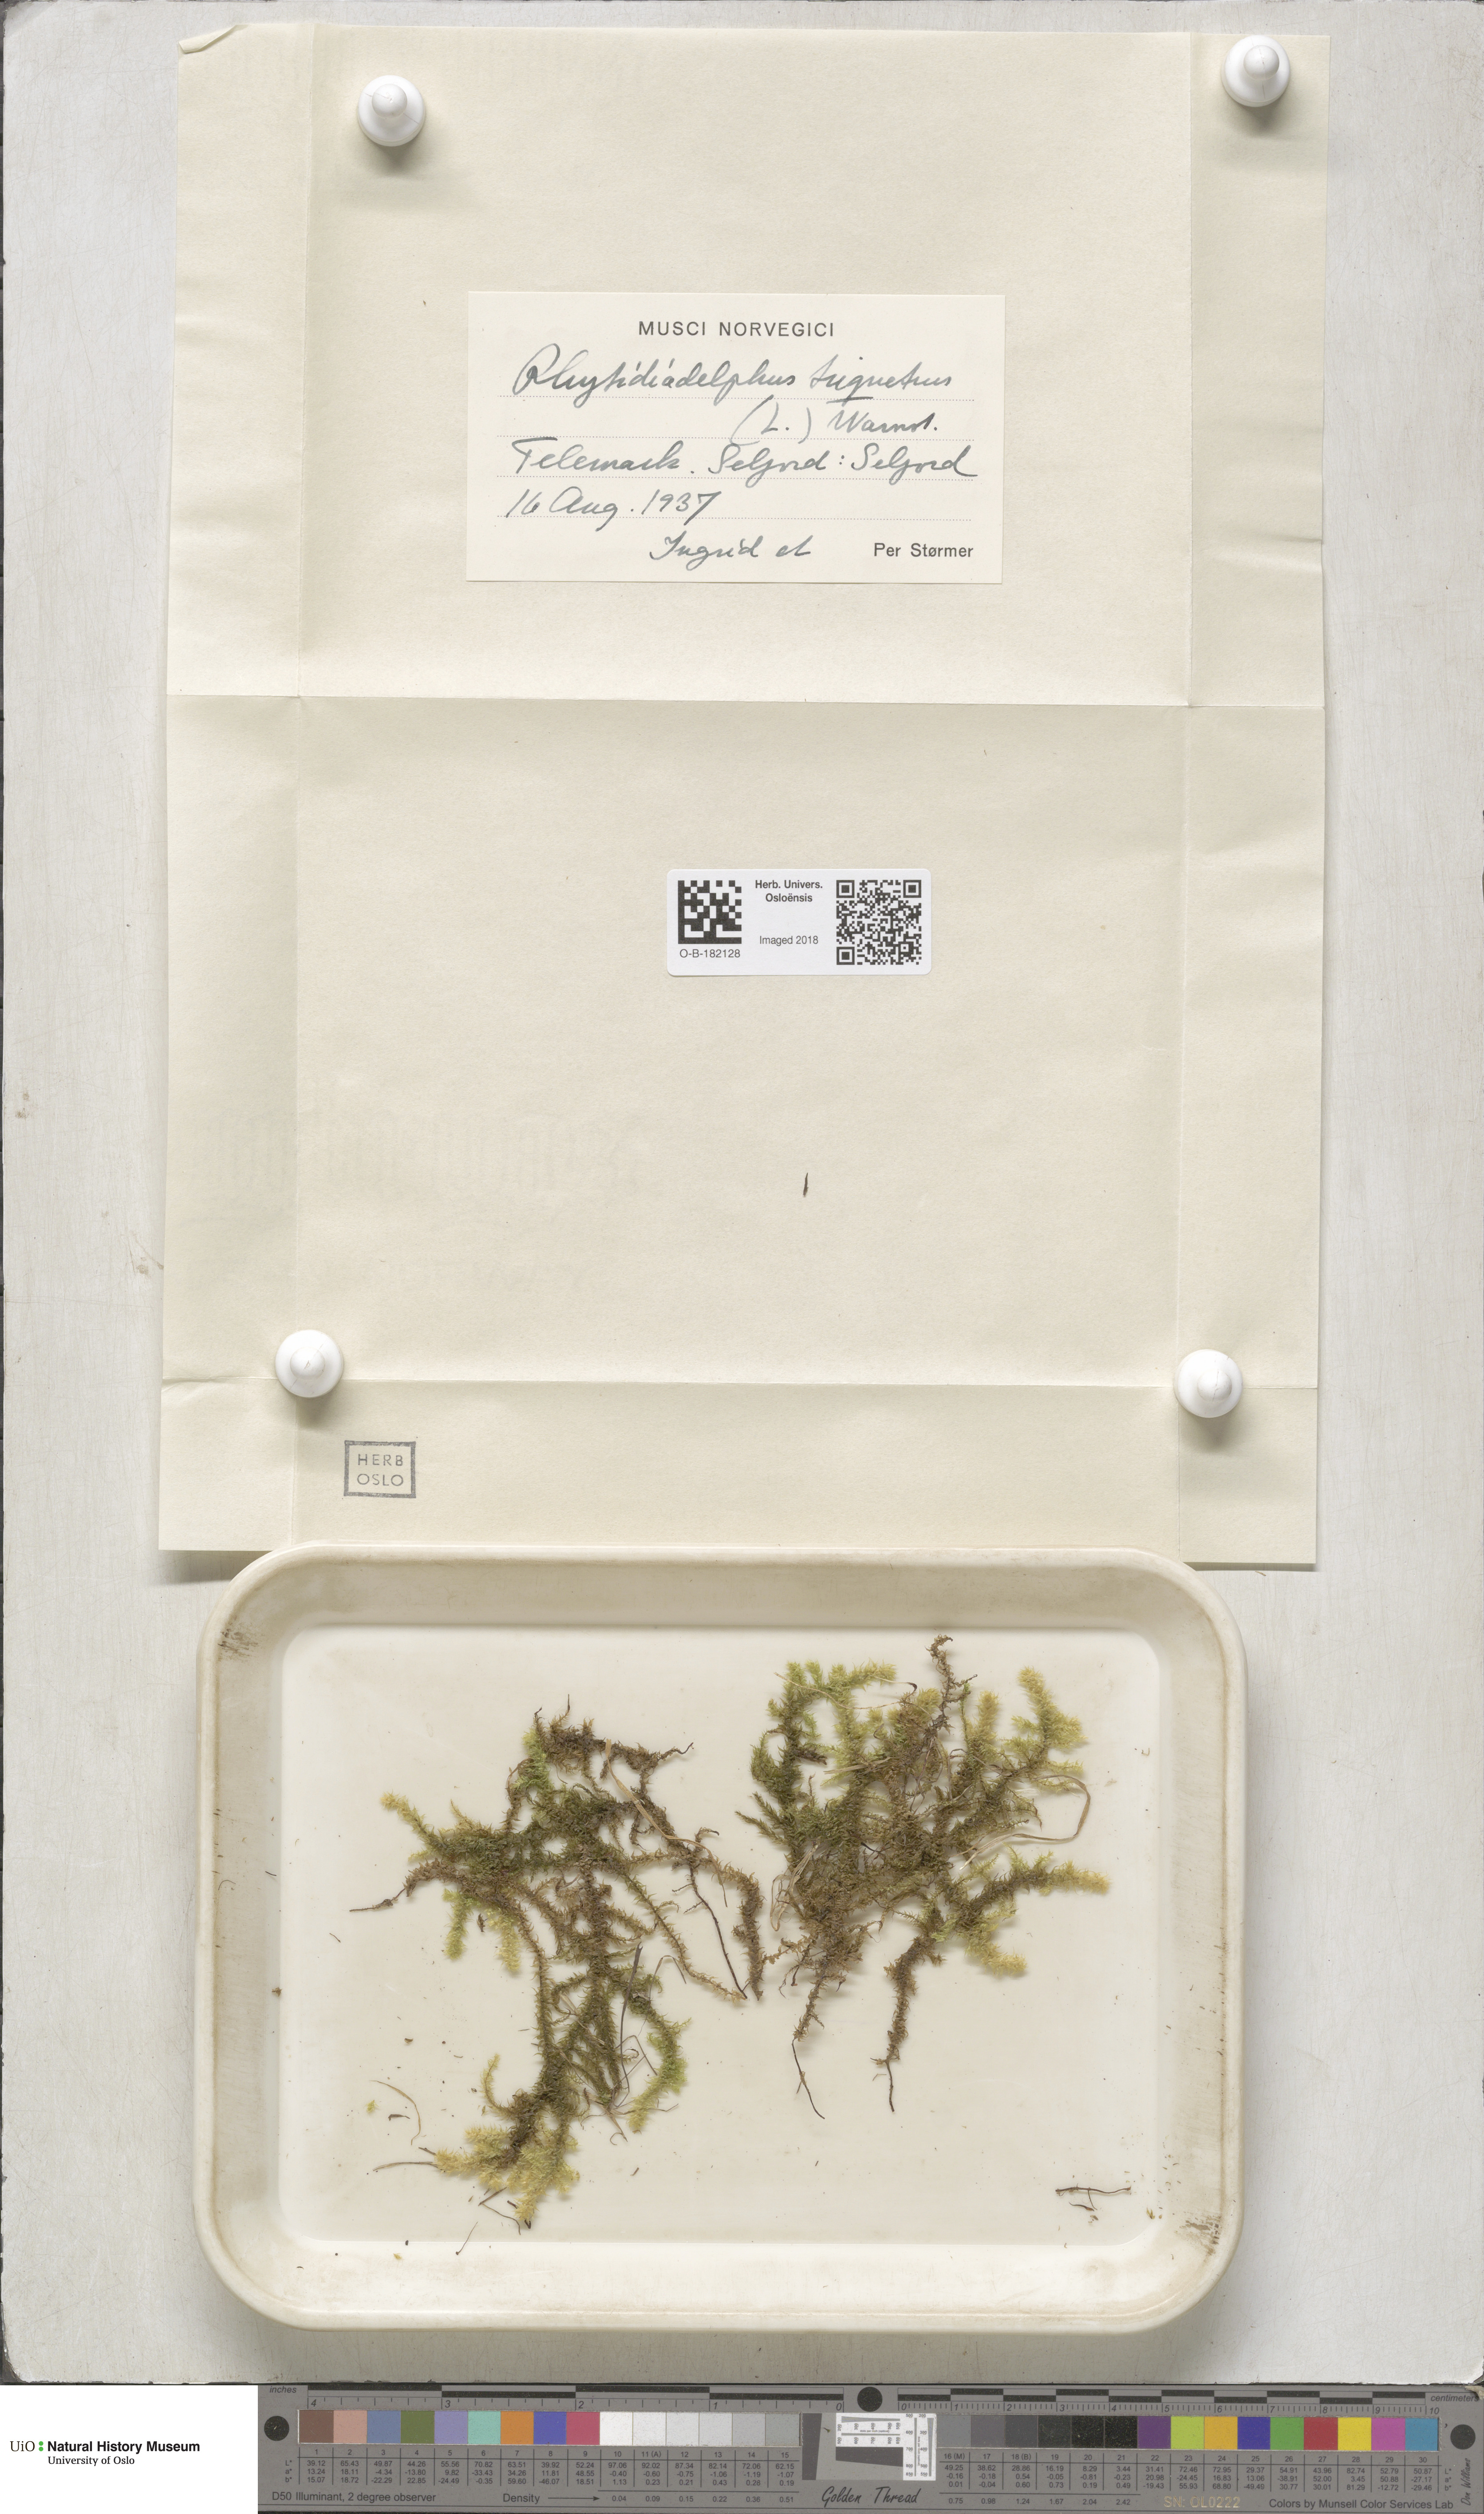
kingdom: Plantae
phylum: Bryophyta
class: Bryopsida
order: Hypnales
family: Hylocomiaceae
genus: Hylocomiadelphus
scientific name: Hylocomiadelphus triquetrus
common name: Rough goose neck moss
